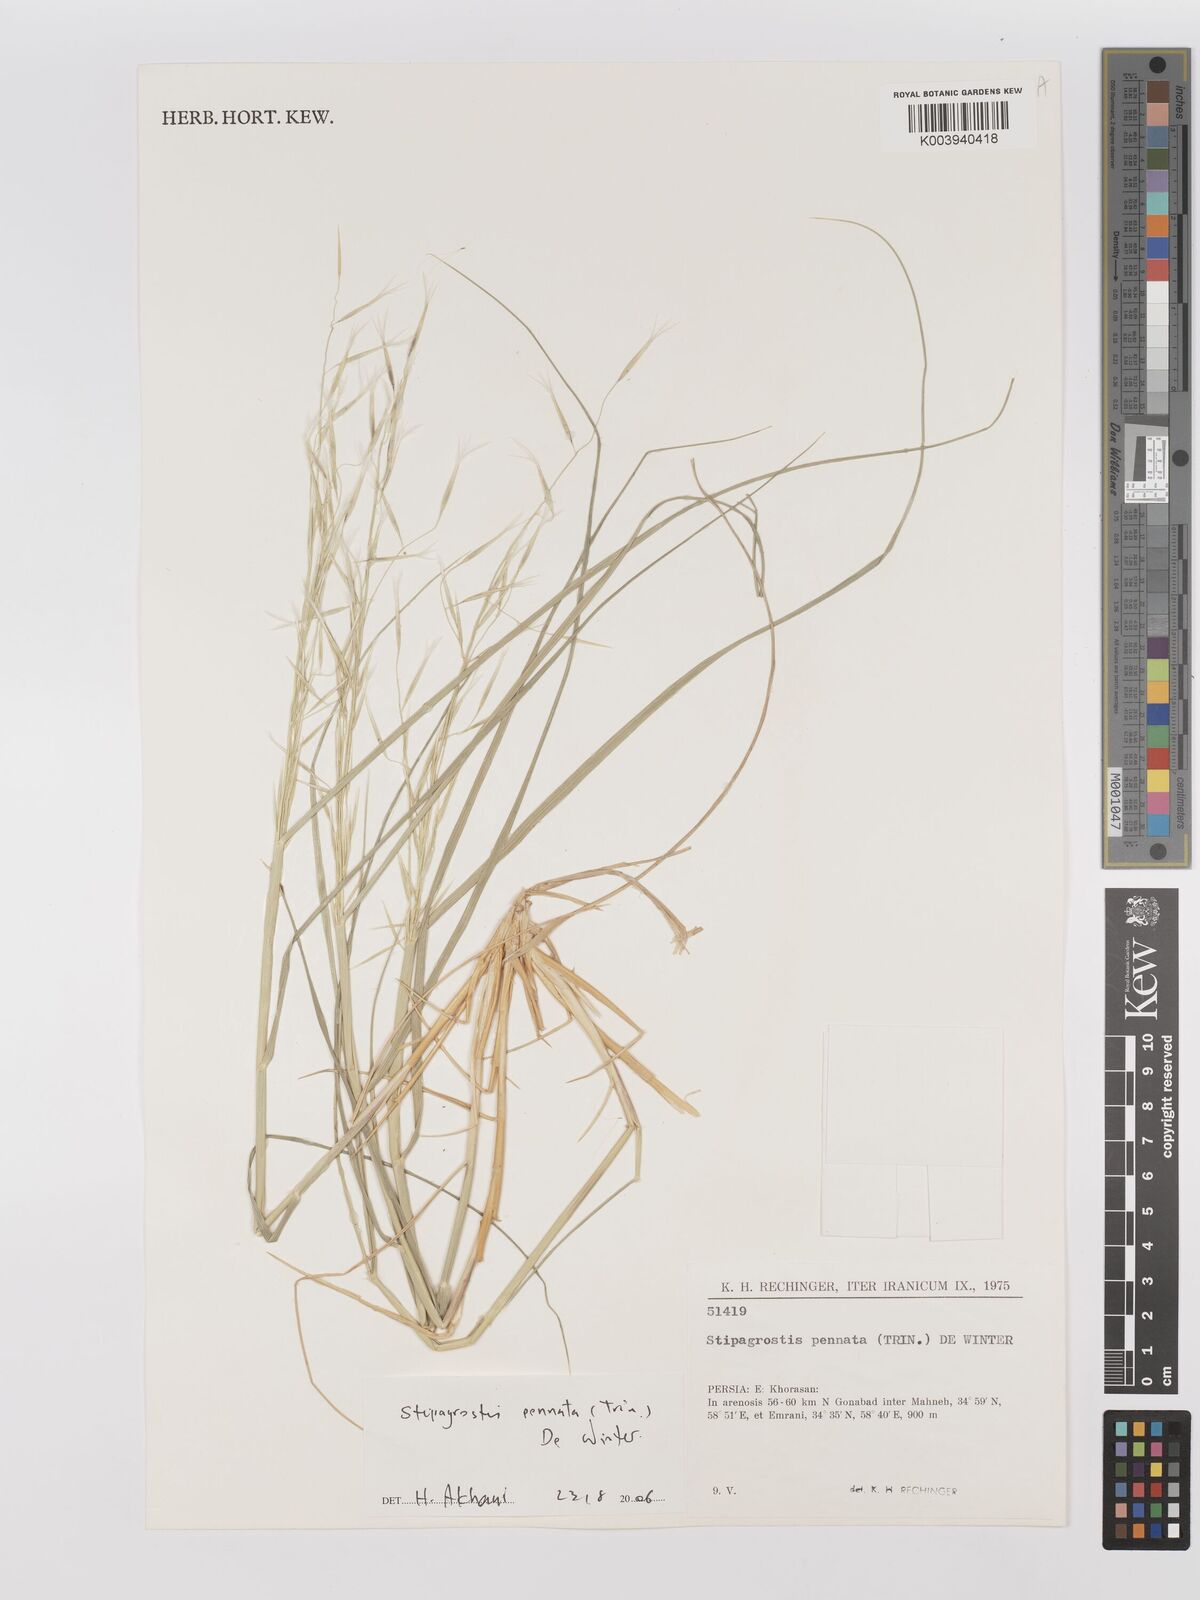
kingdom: Plantae
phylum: Tracheophyta
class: Liliopsida
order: Poales
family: Poaceae
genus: Stipagrostis
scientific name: Stipagrostis pennata
